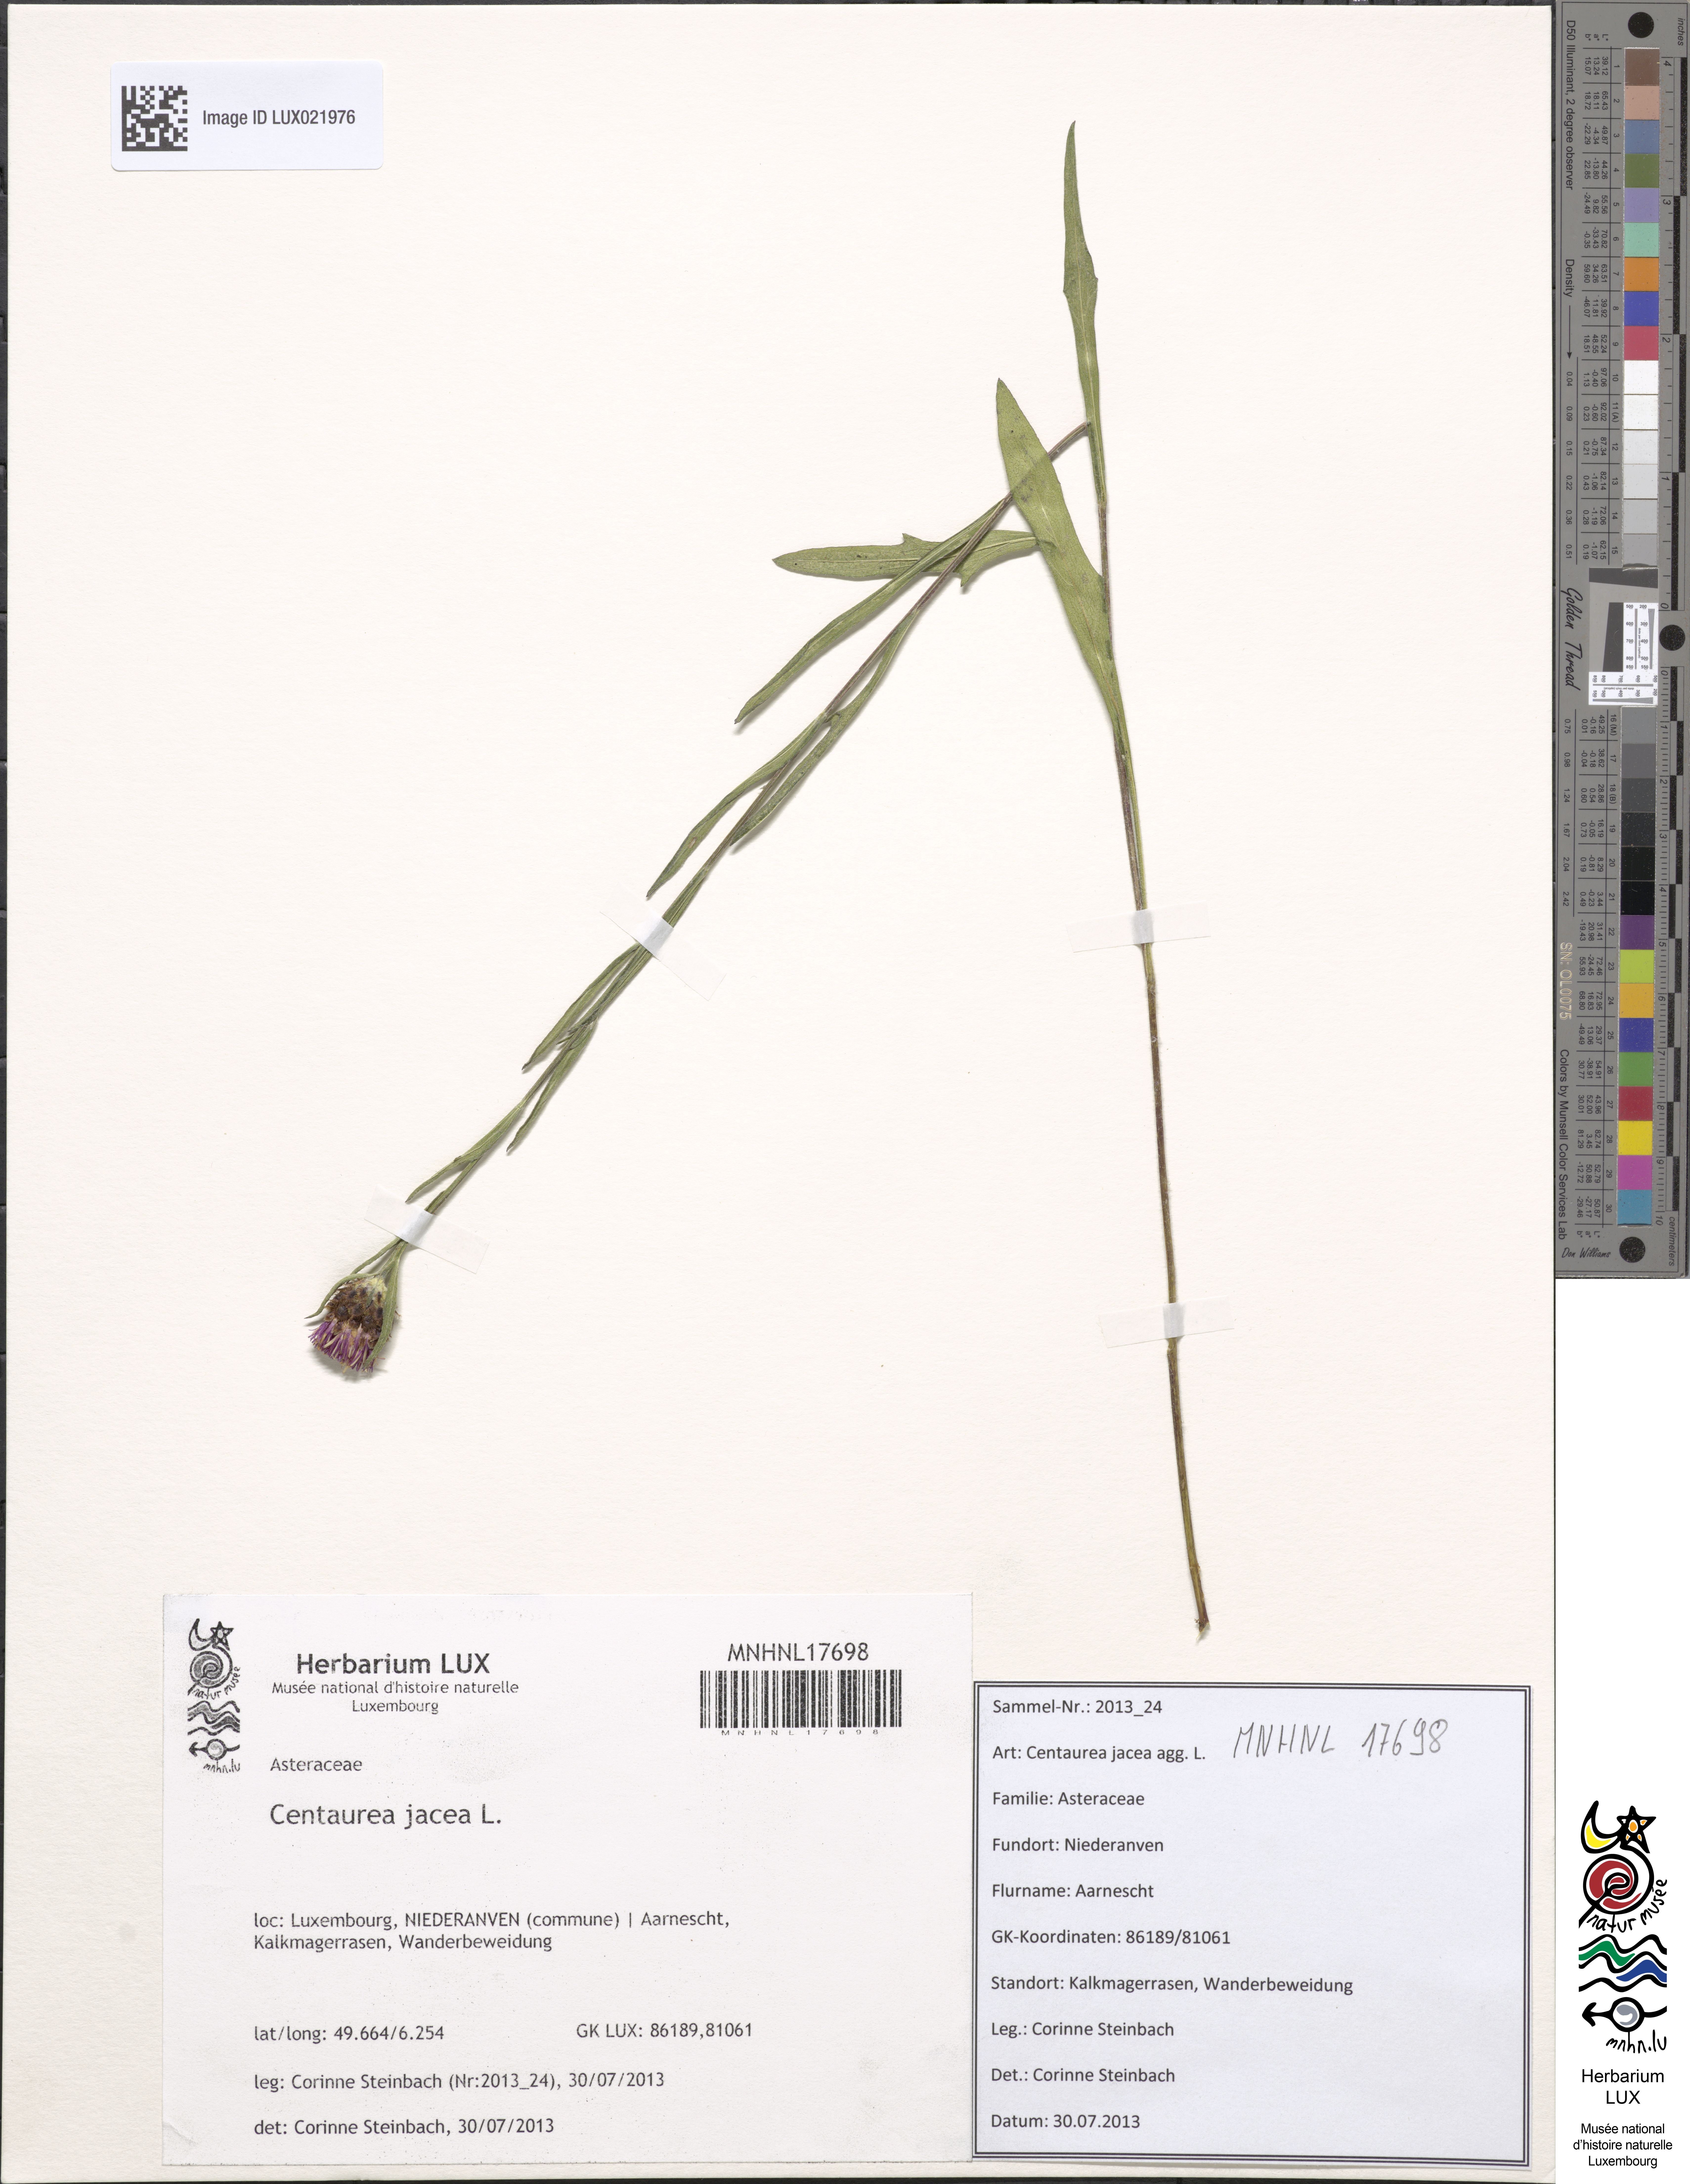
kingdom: Plantae
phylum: Tracheophyta
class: Magnoliopsida
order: Asterales
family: Asteraceae
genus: Centaurea
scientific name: Centaurea jacea
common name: Brown knapweed
